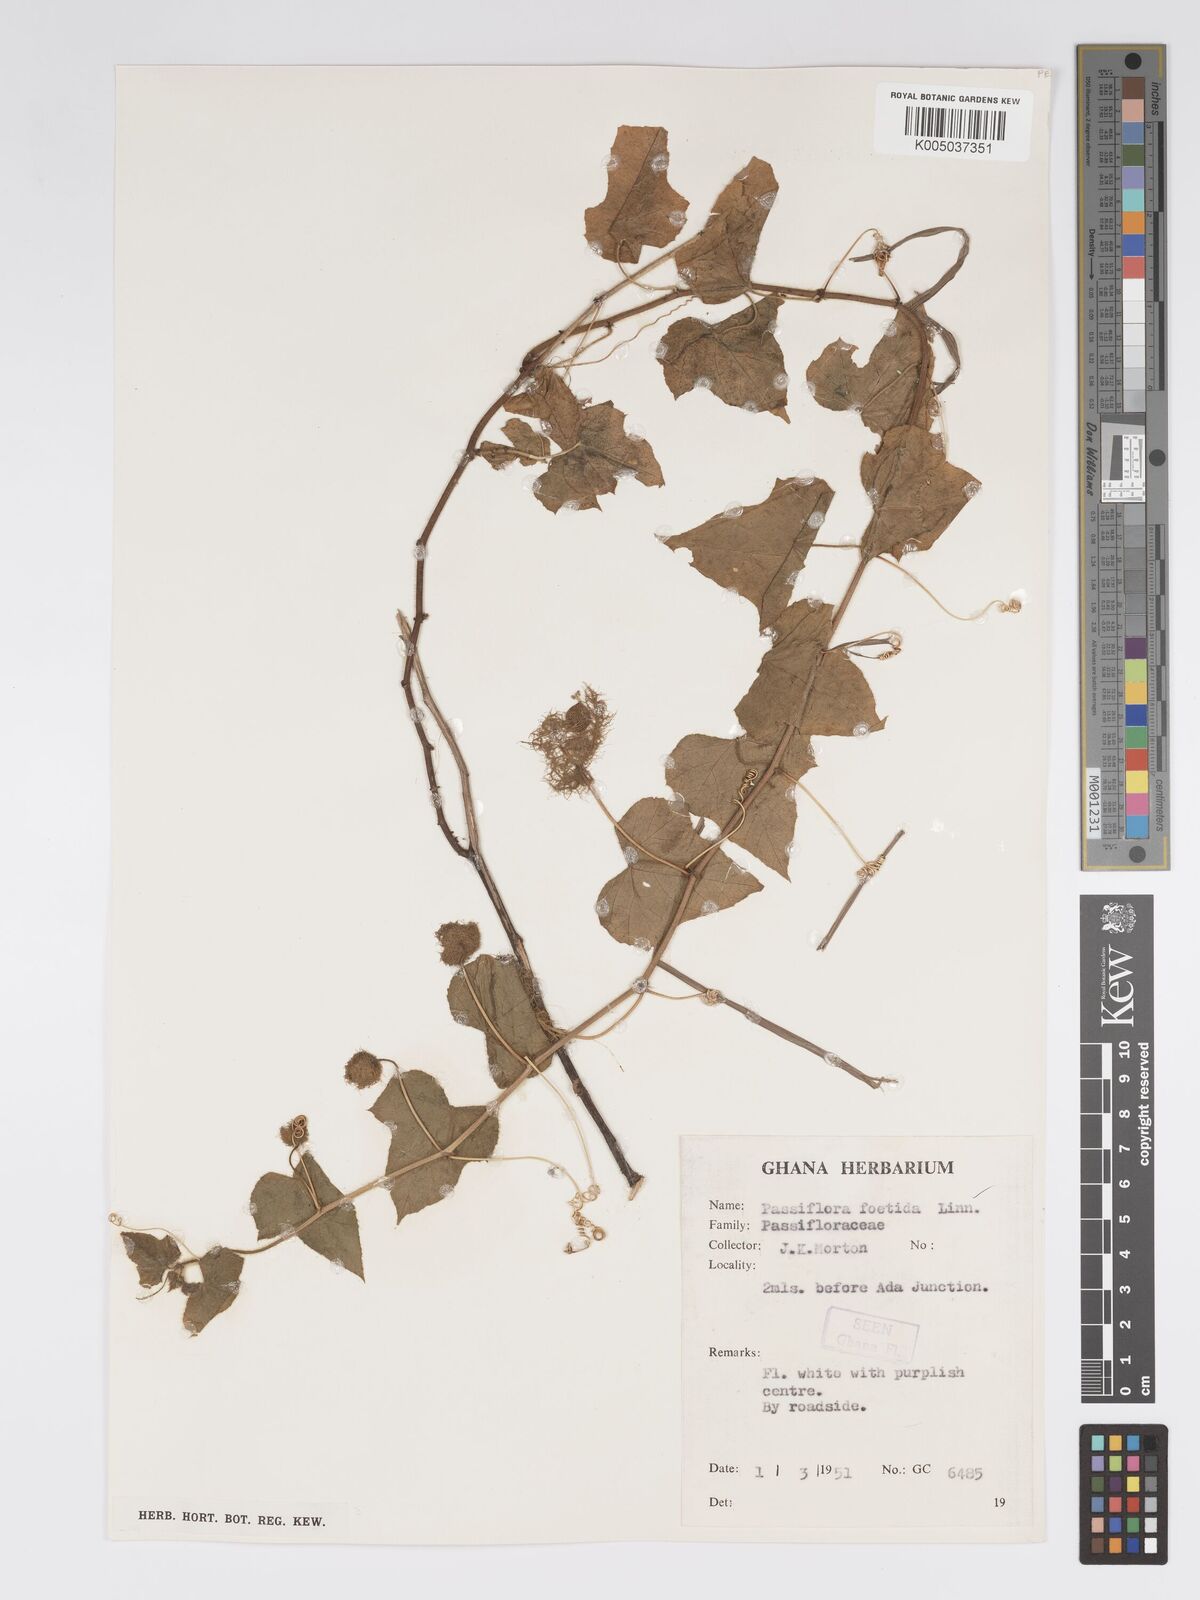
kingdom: Plantae
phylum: Tracheophyta
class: Magnoliopsida
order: Malpighiales
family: Passifloraceae
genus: Passiflora
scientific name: Passiflora foetida
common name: Fetid passionflower
